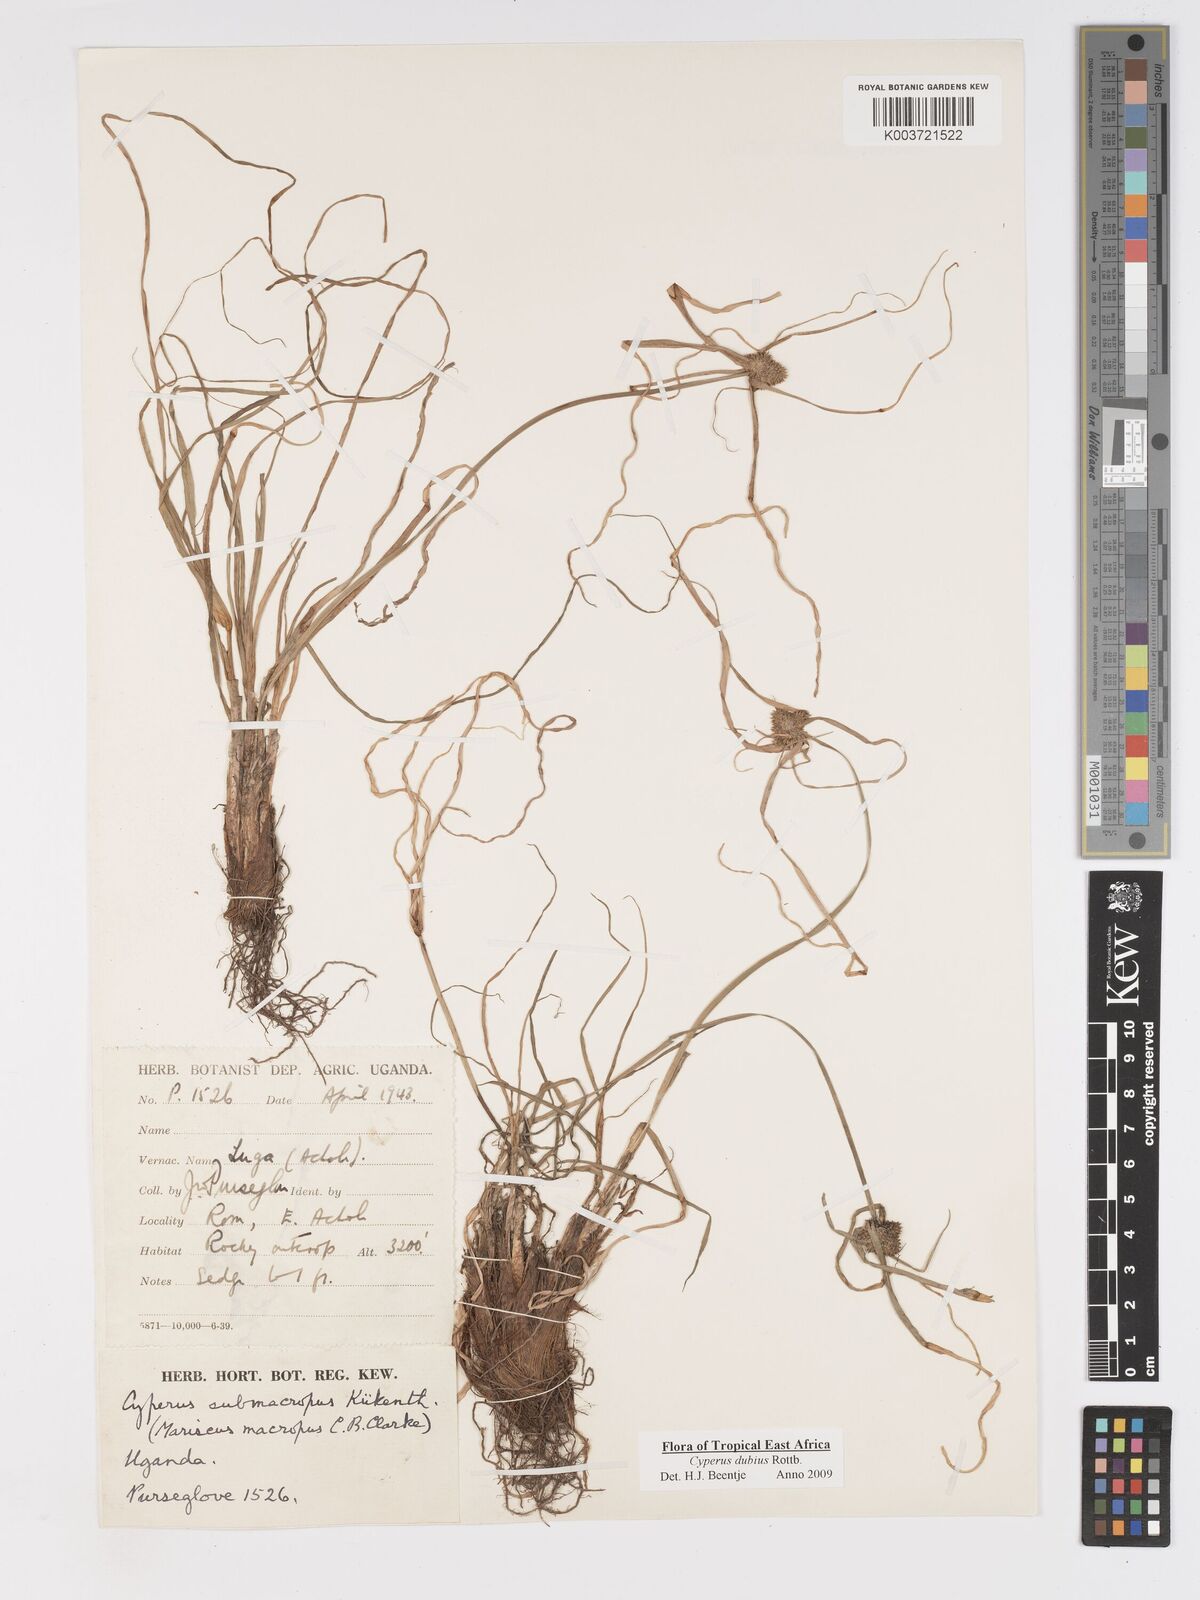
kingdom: Plantae
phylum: Tracheophyta
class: Liliopsida
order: Poales
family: Cyperaceae
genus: Cyperus
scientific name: Cyperus dubius
